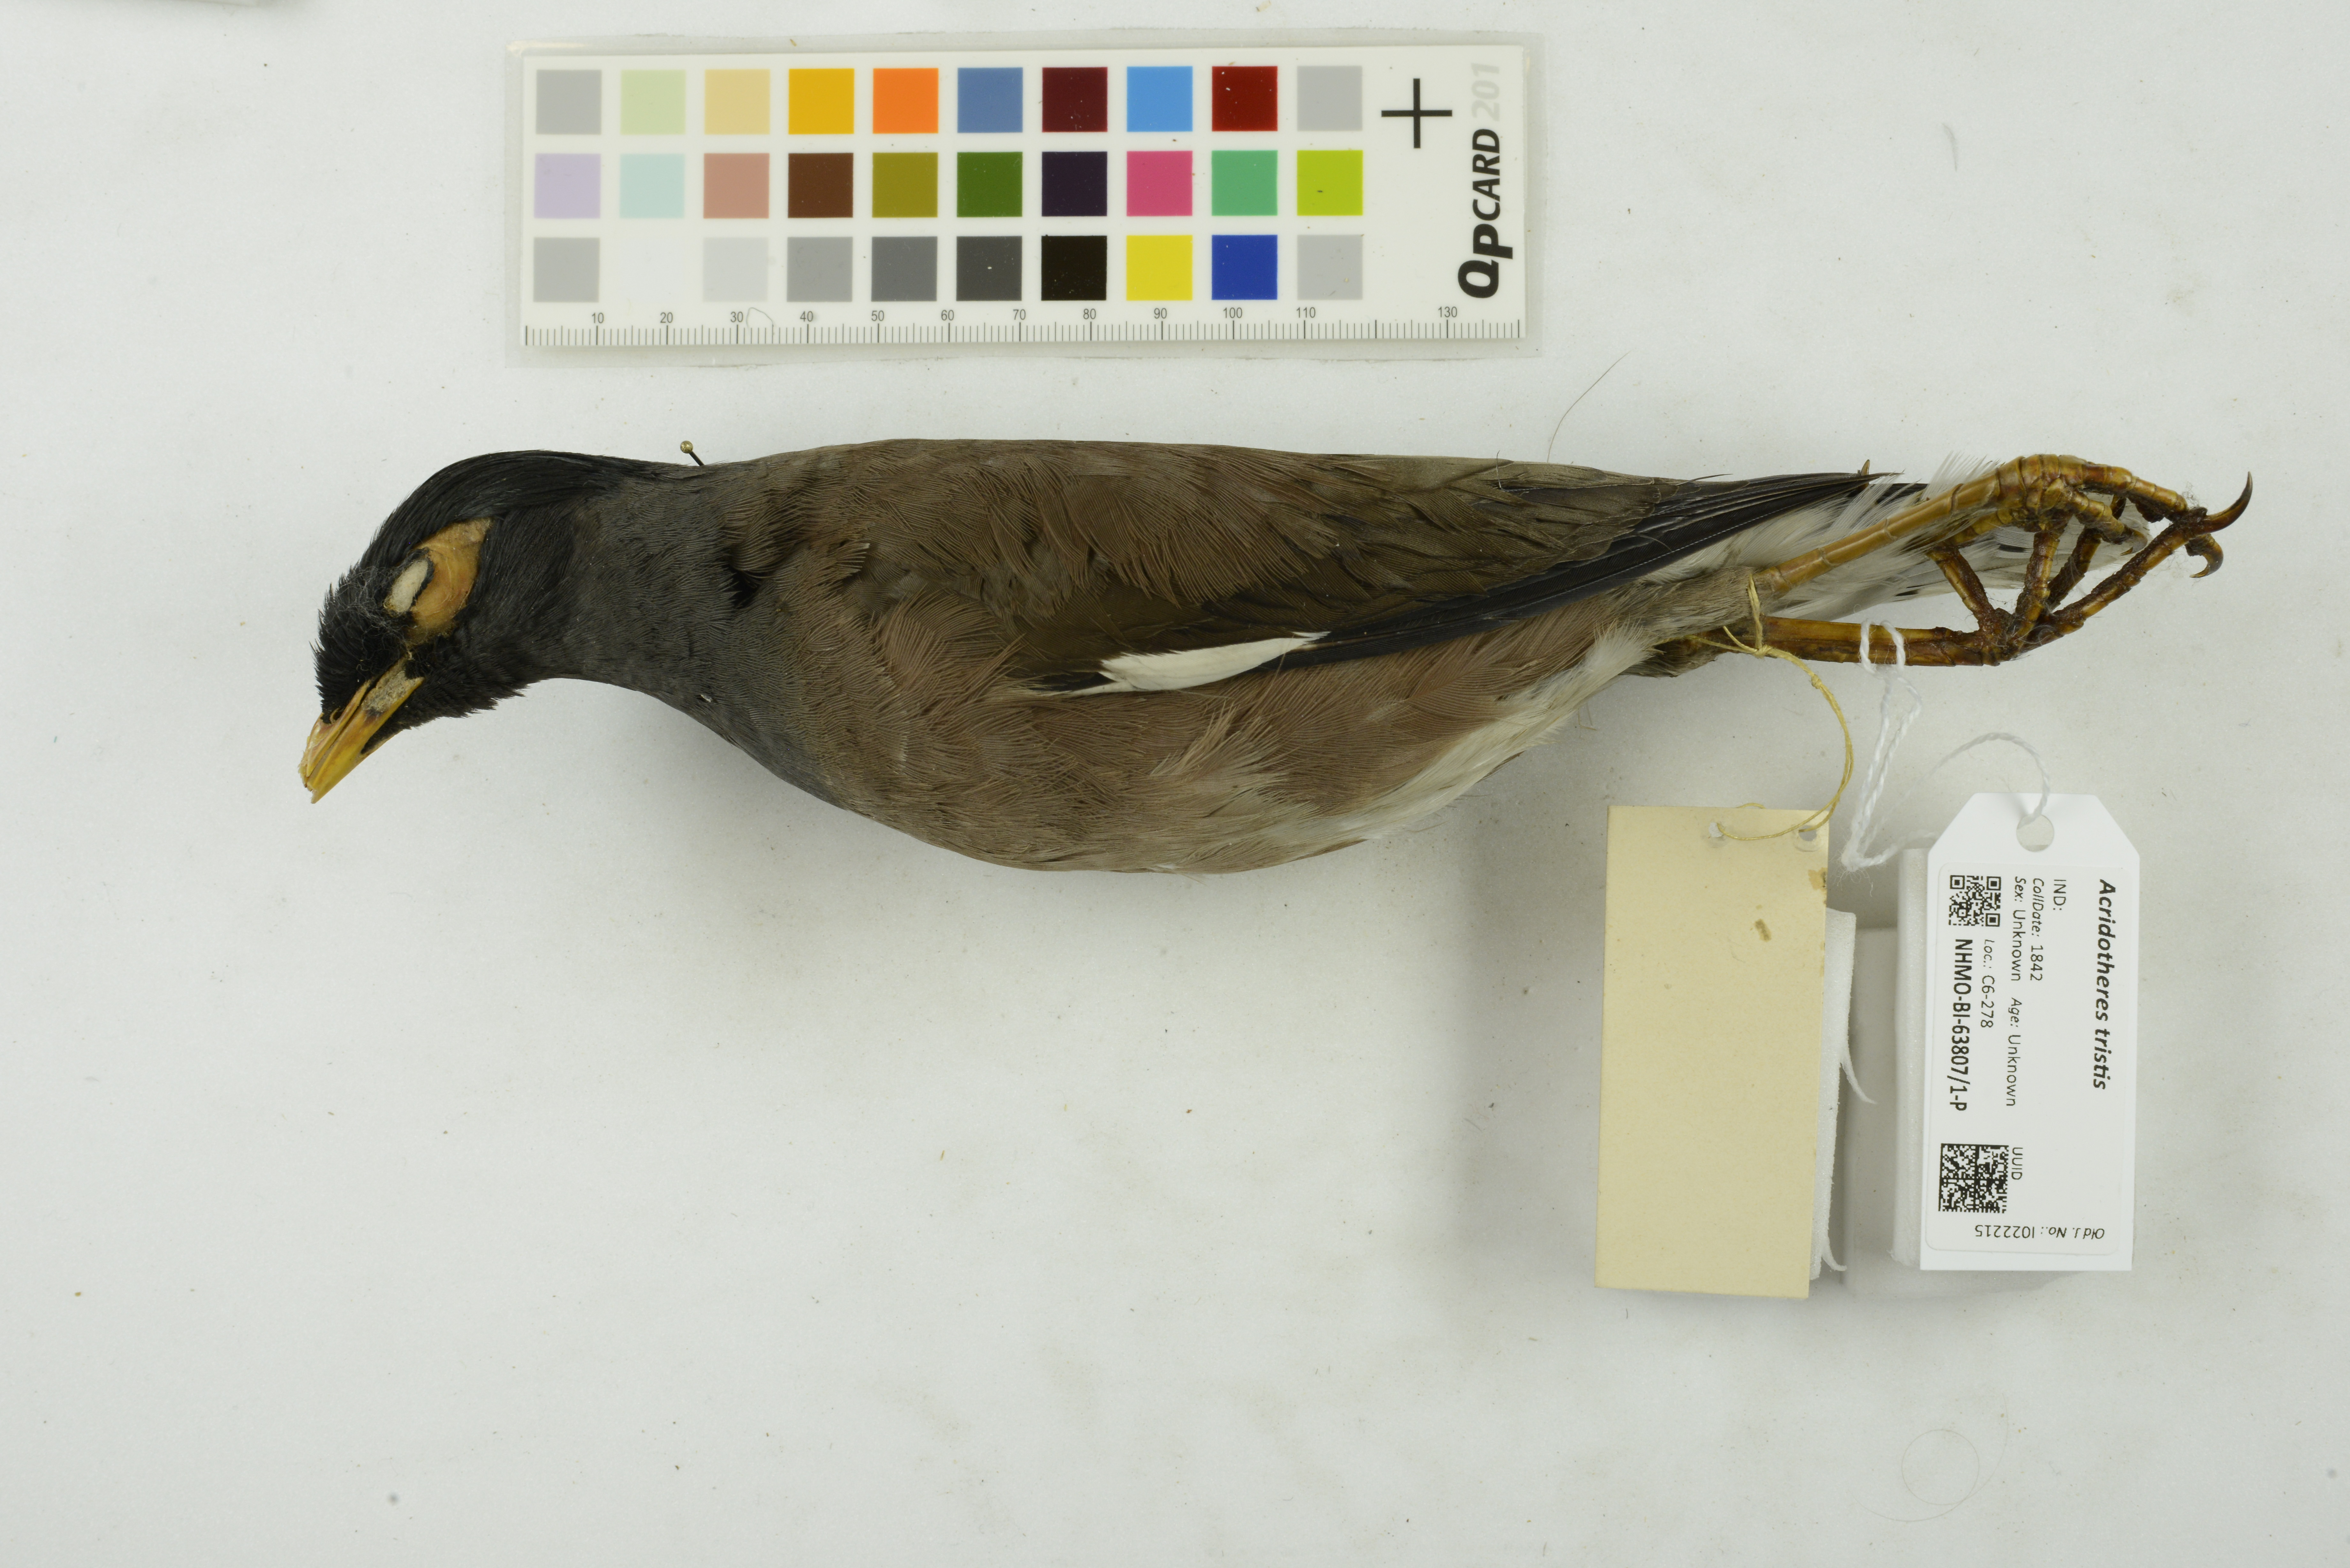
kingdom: Animalia
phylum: Chordata
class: Aves
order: Passeriformes
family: Sturnidae
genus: Acridotheres
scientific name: Acridotheres tristis
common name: Common myna
